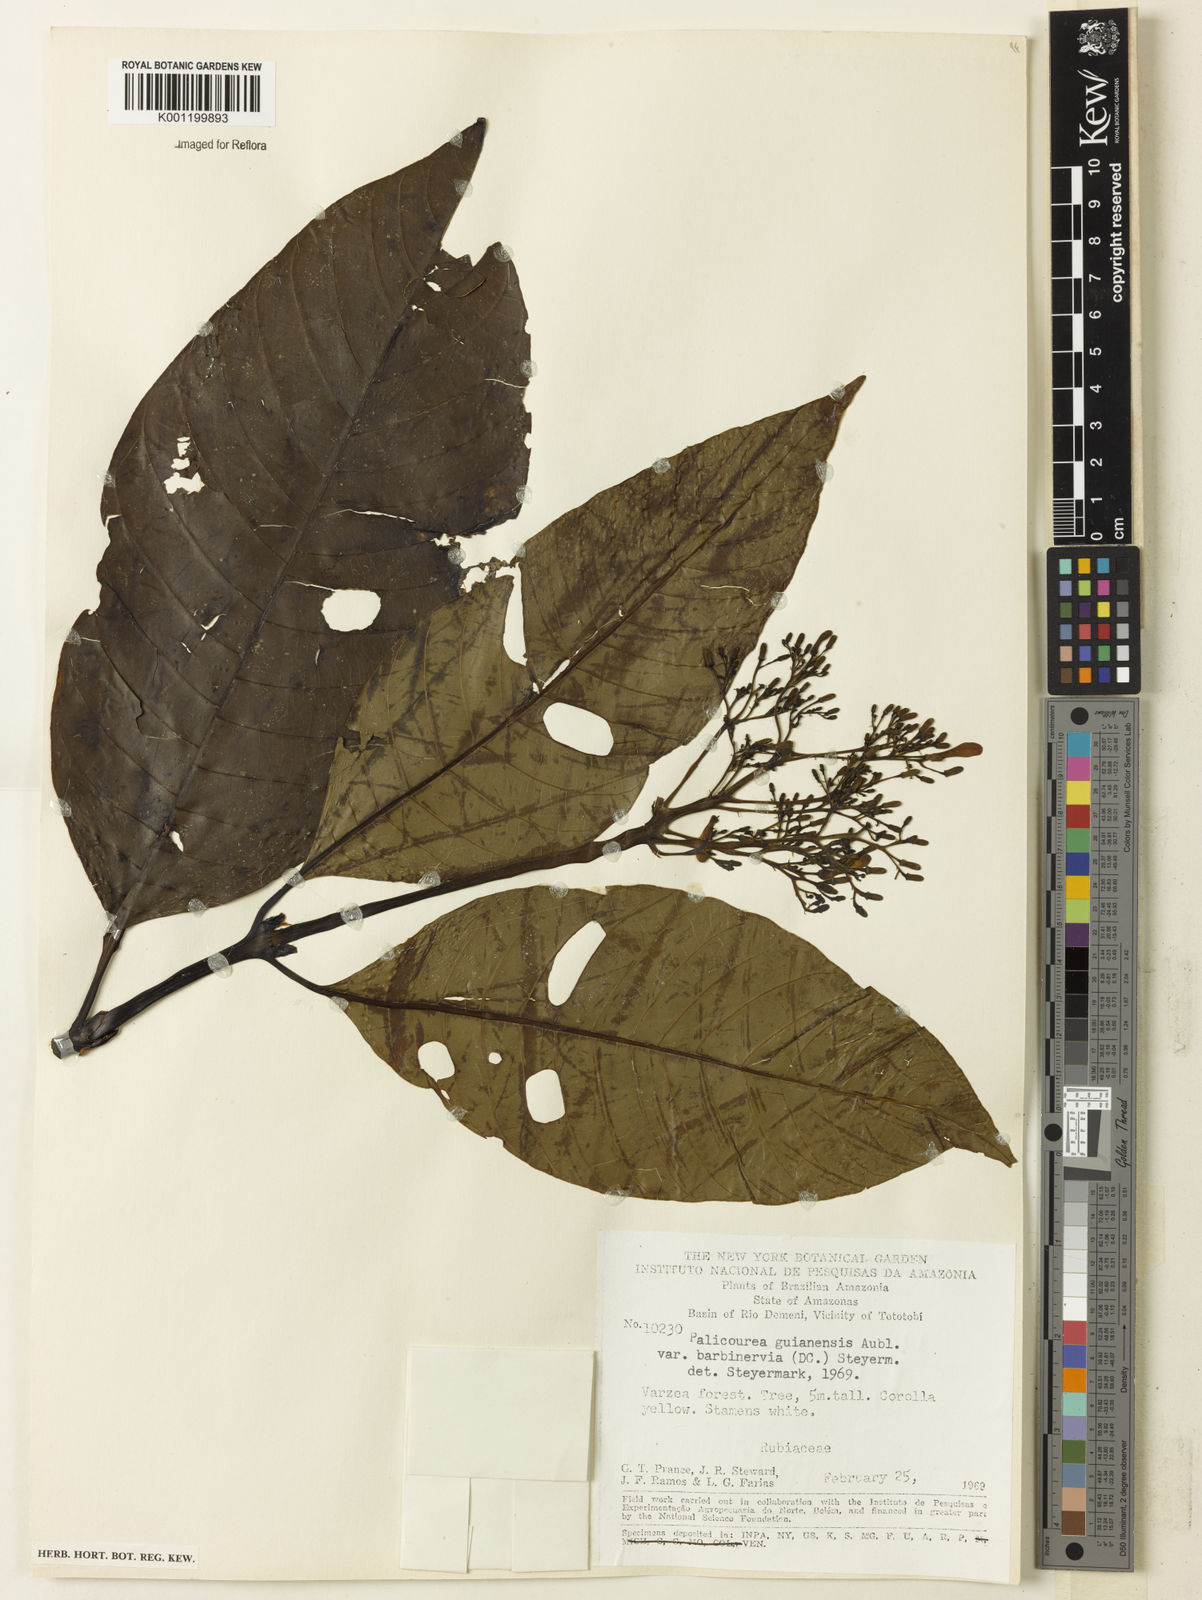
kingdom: Plantae
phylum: Tracheophyta
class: Magnoliopsida
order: Gentianales
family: Rubiaceae
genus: Palicourea
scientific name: Palicourea guianensis
